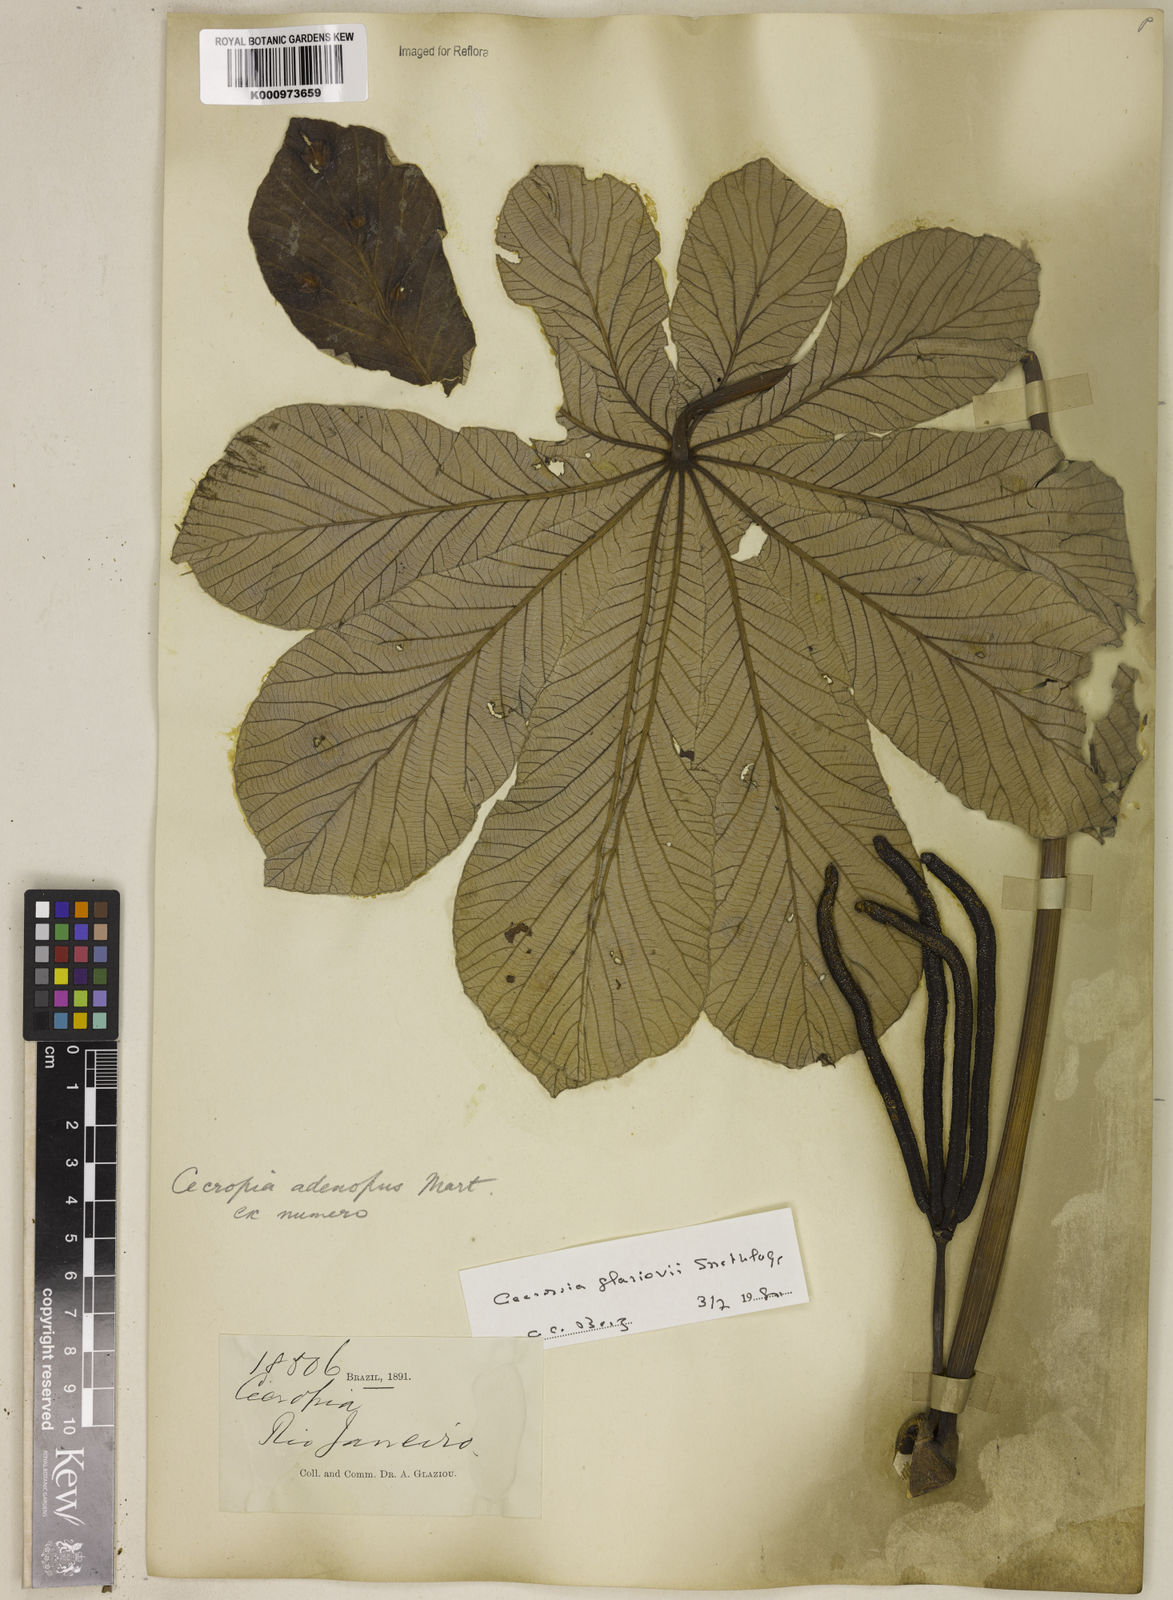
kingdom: Plantae
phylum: Tracheophyta
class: Magnoliopsida
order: Rosales
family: Urticaceae
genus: Cecropia
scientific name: Cecropia glaziovii
